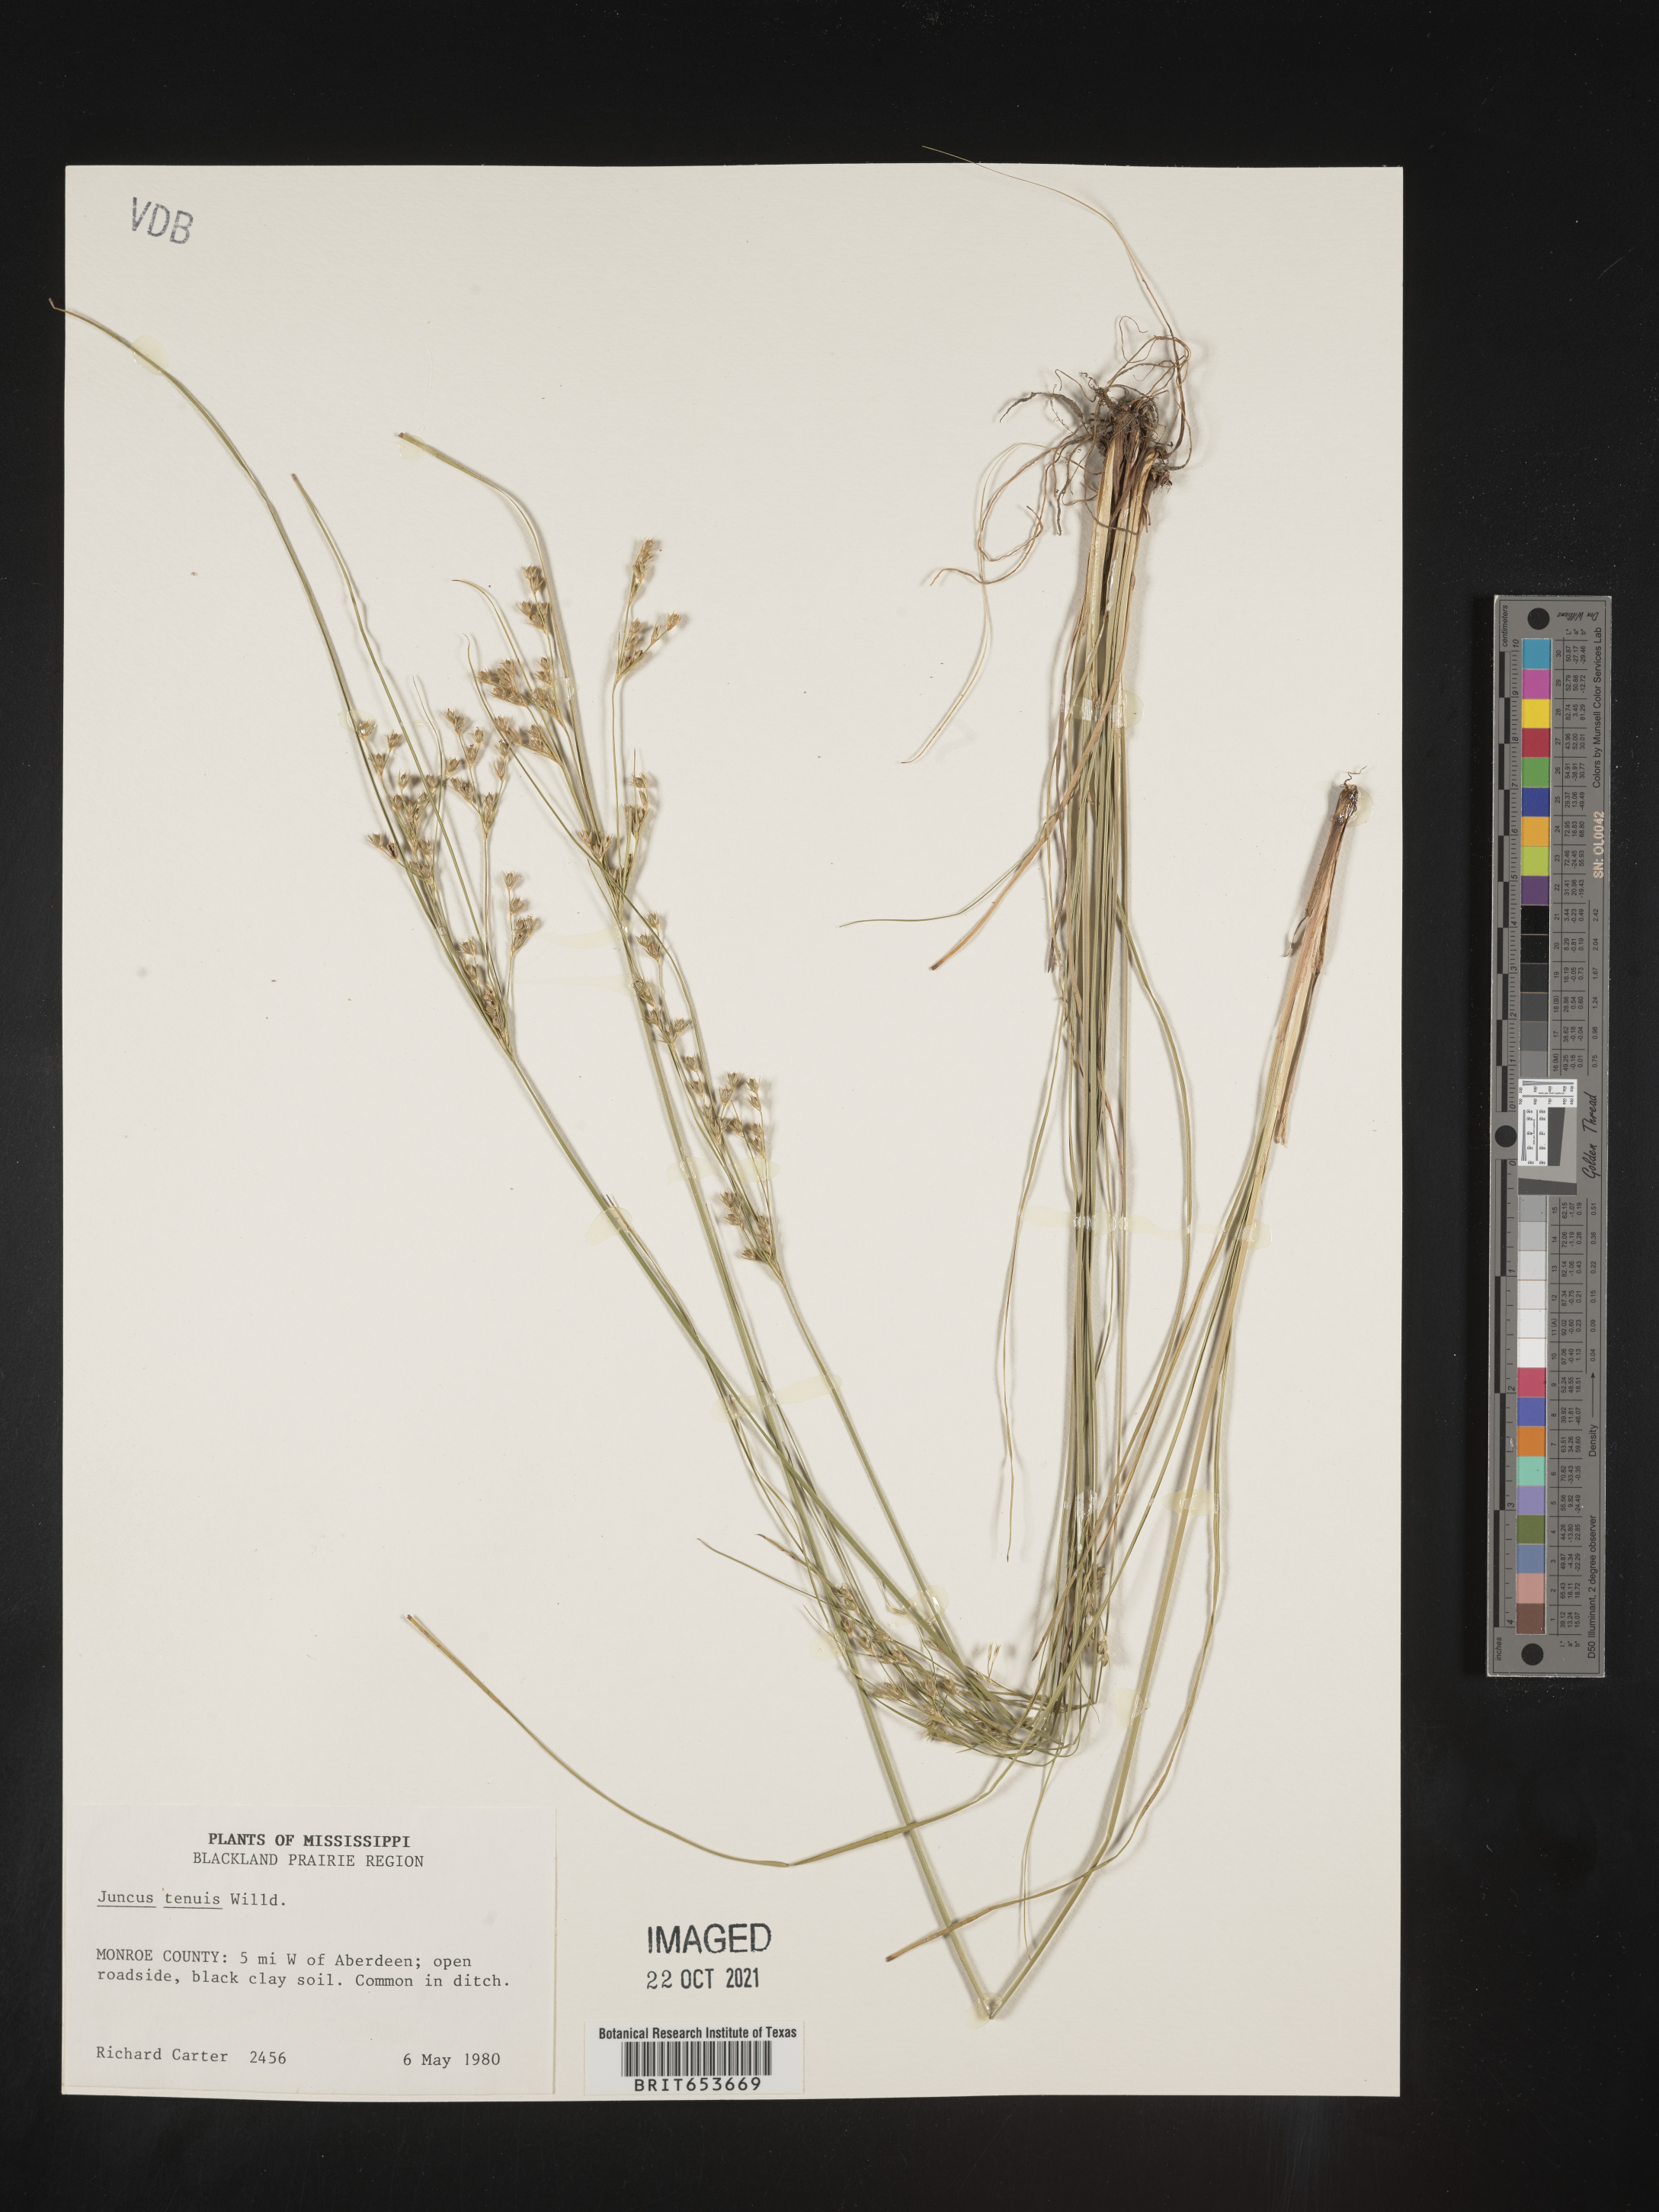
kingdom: Plantae
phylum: Tracheophyta
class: Liliopsida
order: Poales
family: Juncaceae
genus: Juncus
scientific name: Juncus tenuis
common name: Slender rush
